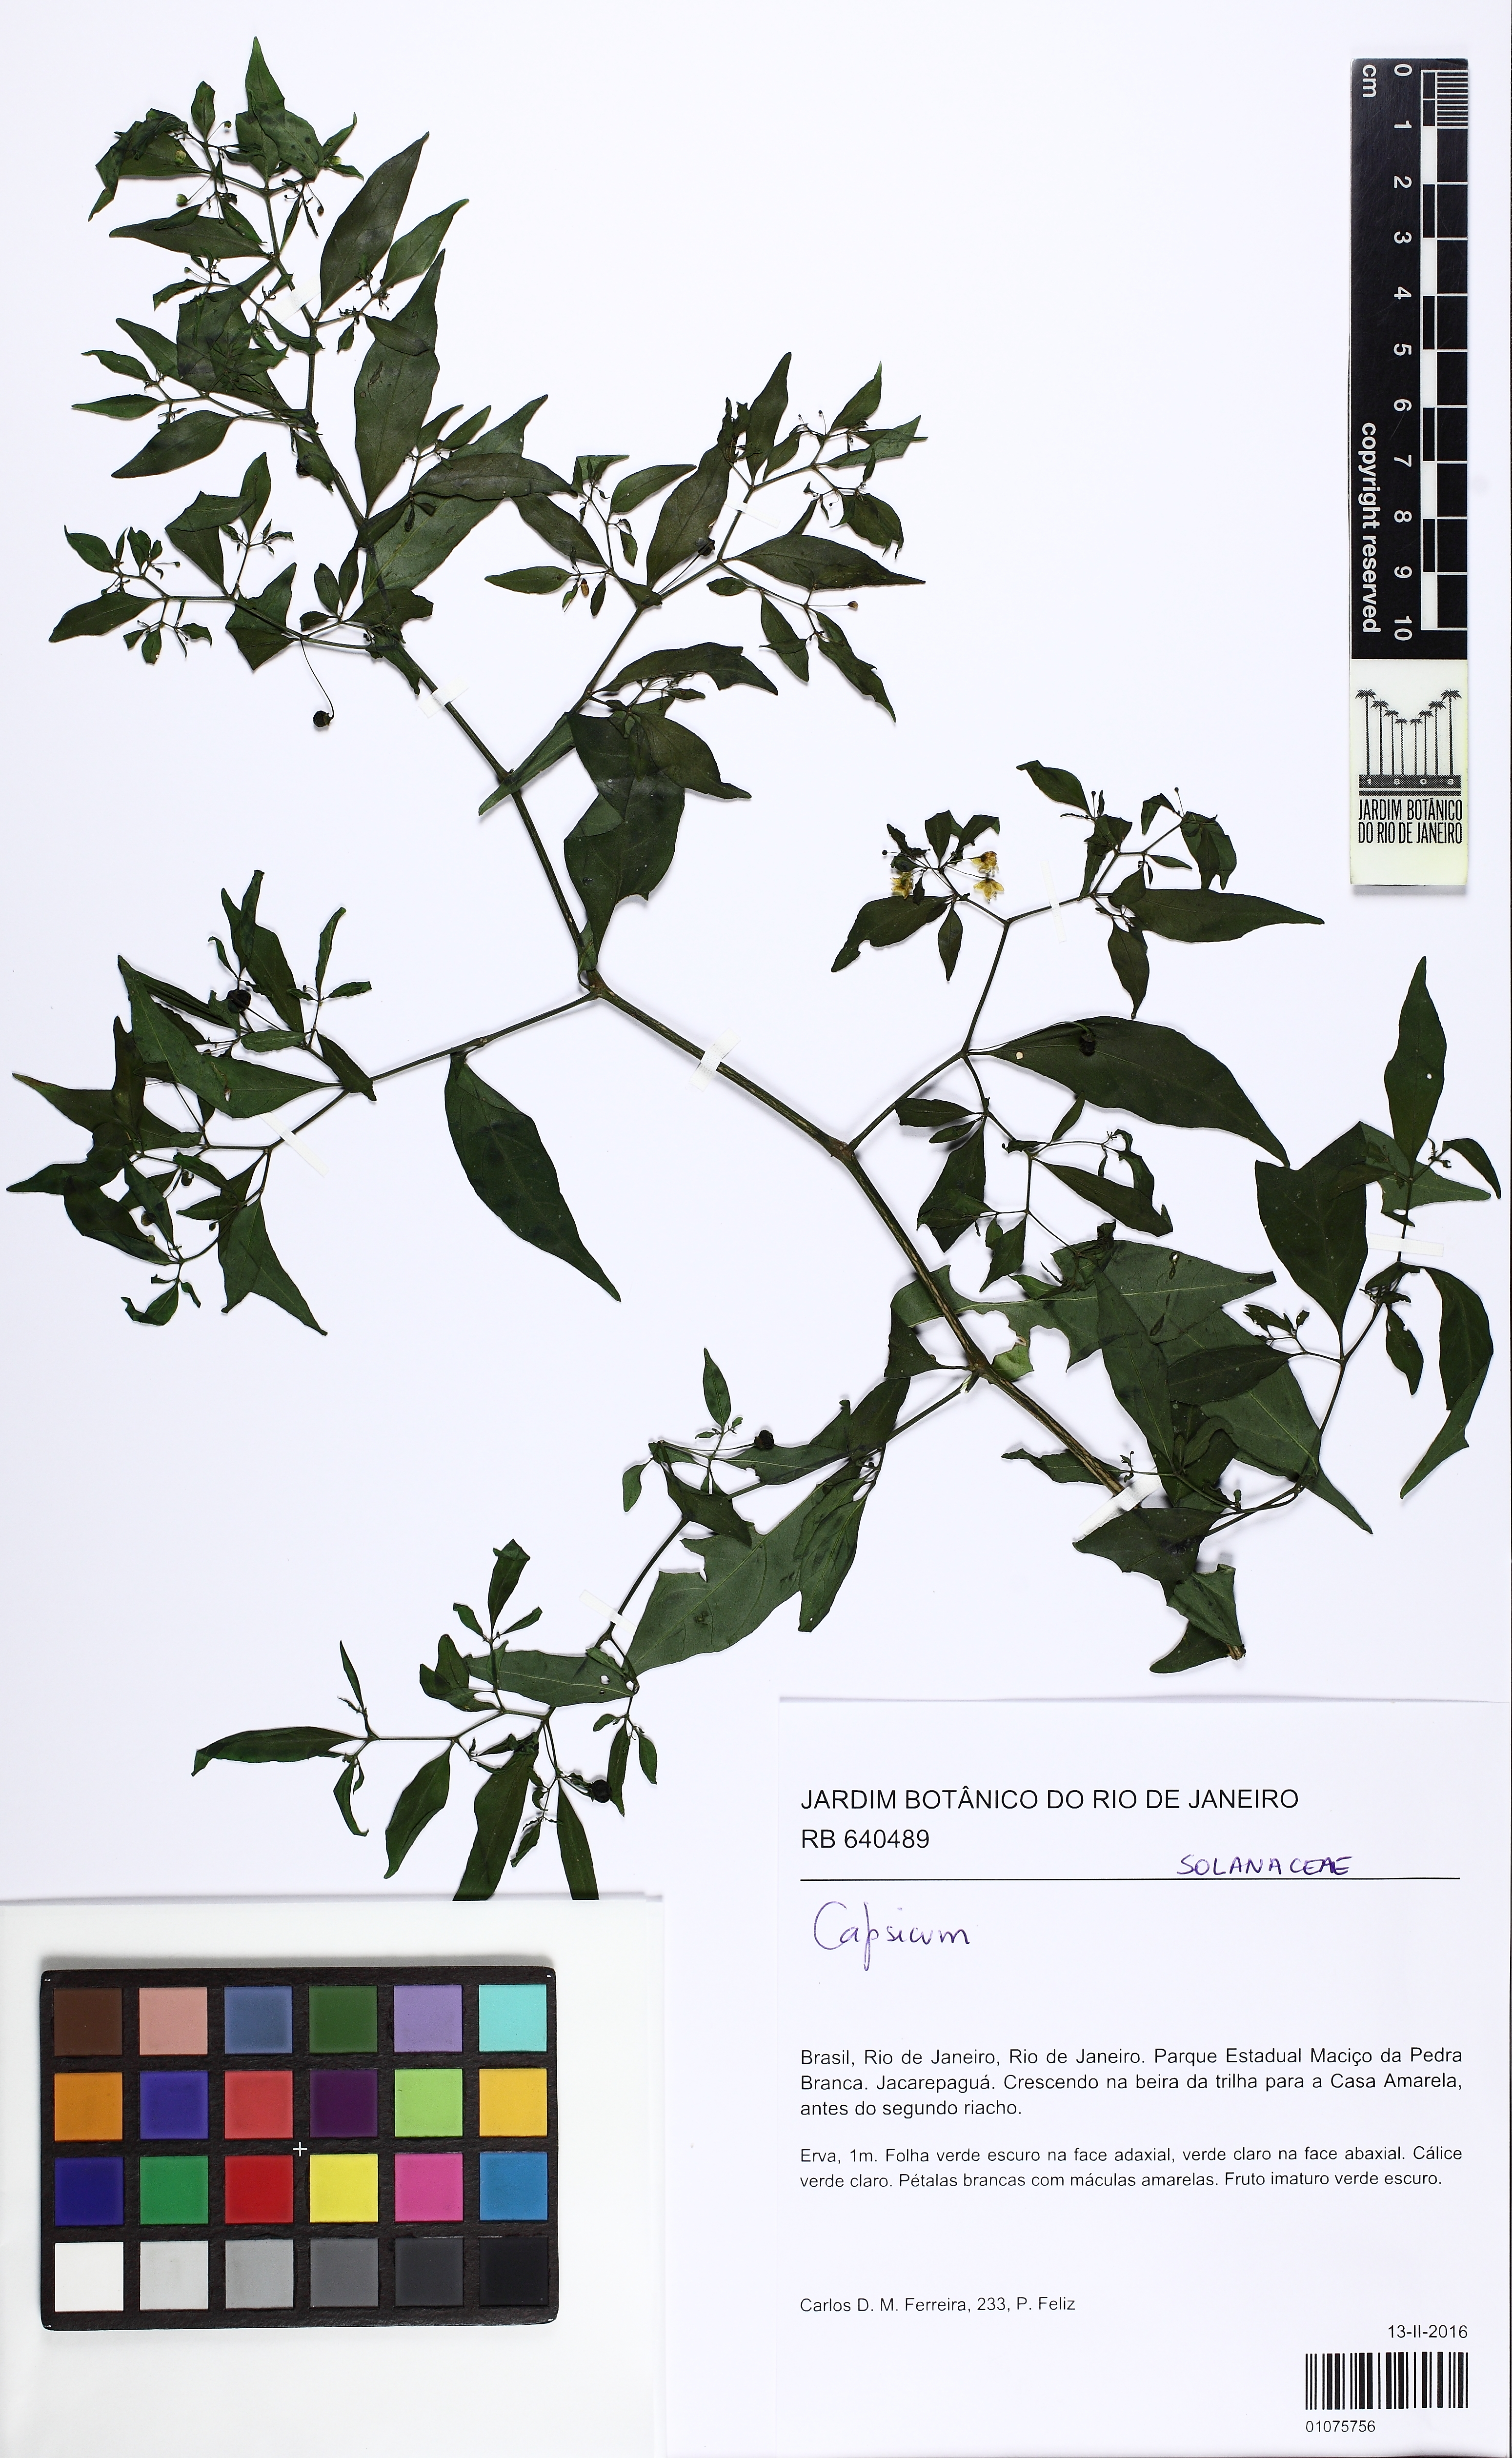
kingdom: Plantae
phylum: Tracheophyta
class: Magnoliopsida
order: Solanales
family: Solanaceae
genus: Capsicum
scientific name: Capsicum campylopodium
